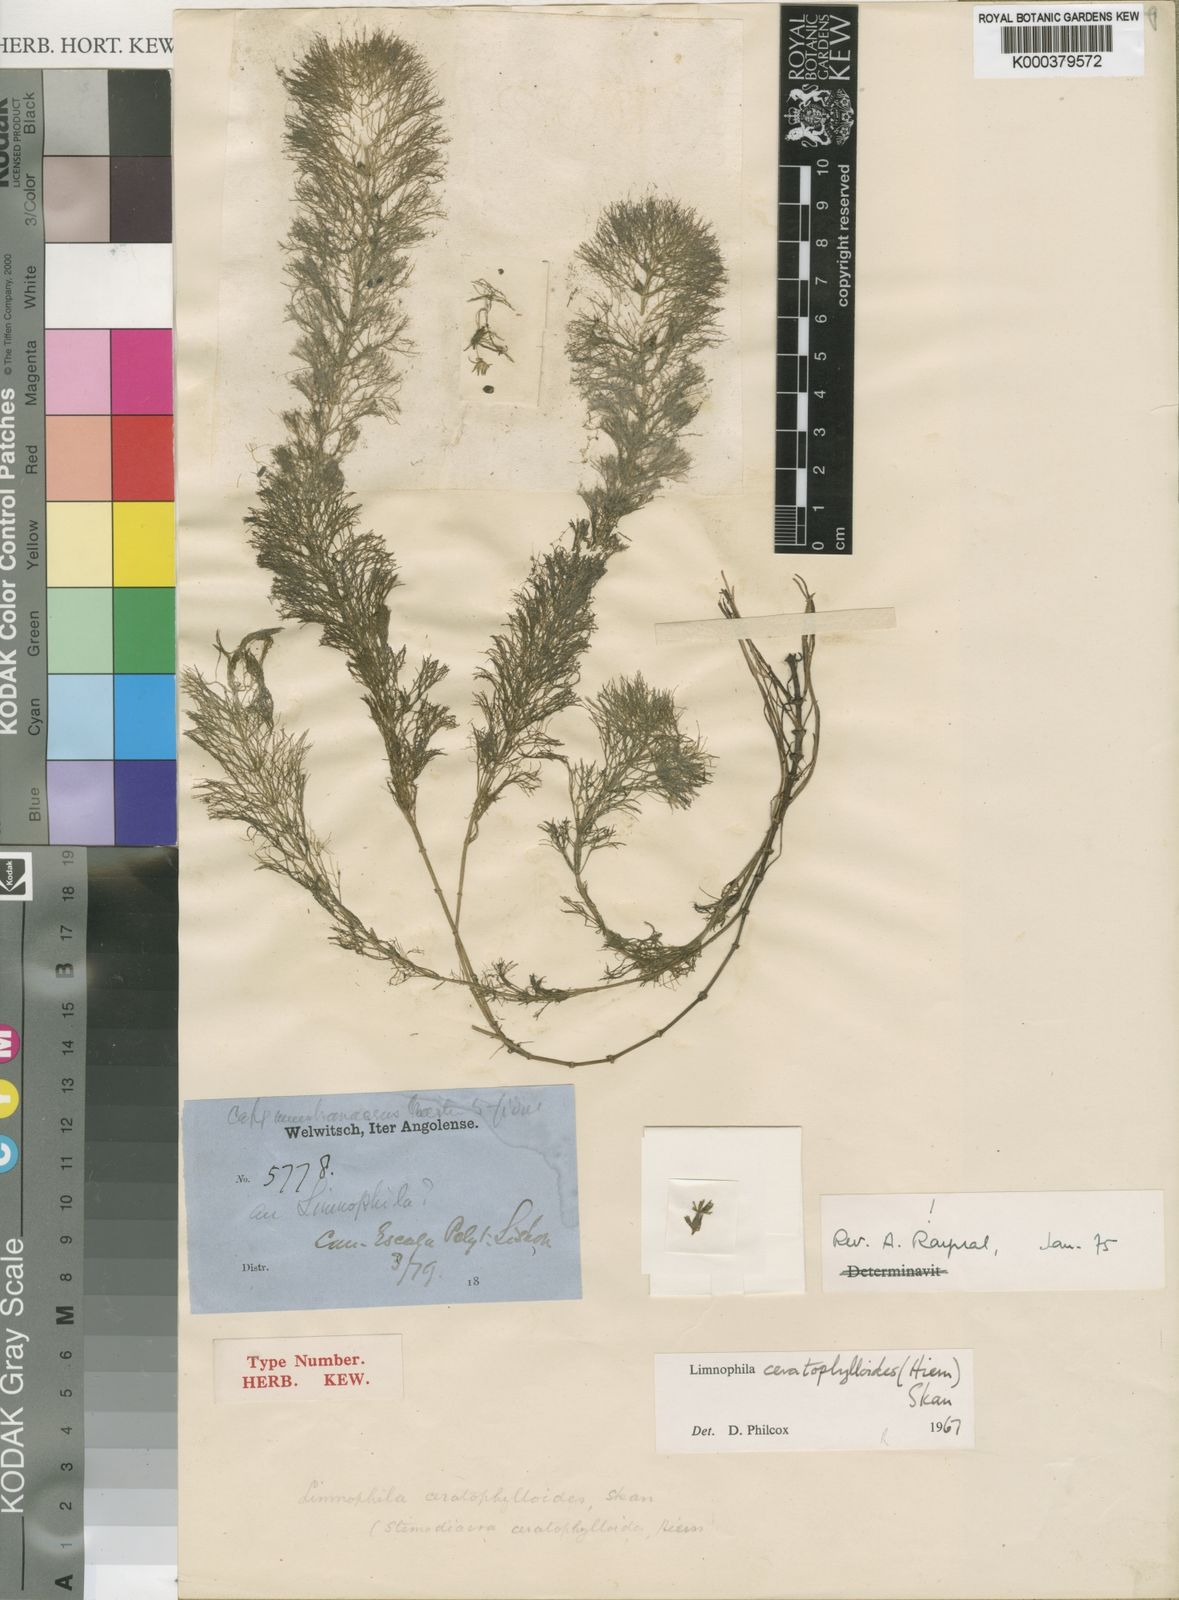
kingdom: Plantae
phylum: Tracheophyta
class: Magnoliopsida
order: Lamiales
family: Plantaginaceae
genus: Limnophila
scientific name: Limnophila ceratophylloides
